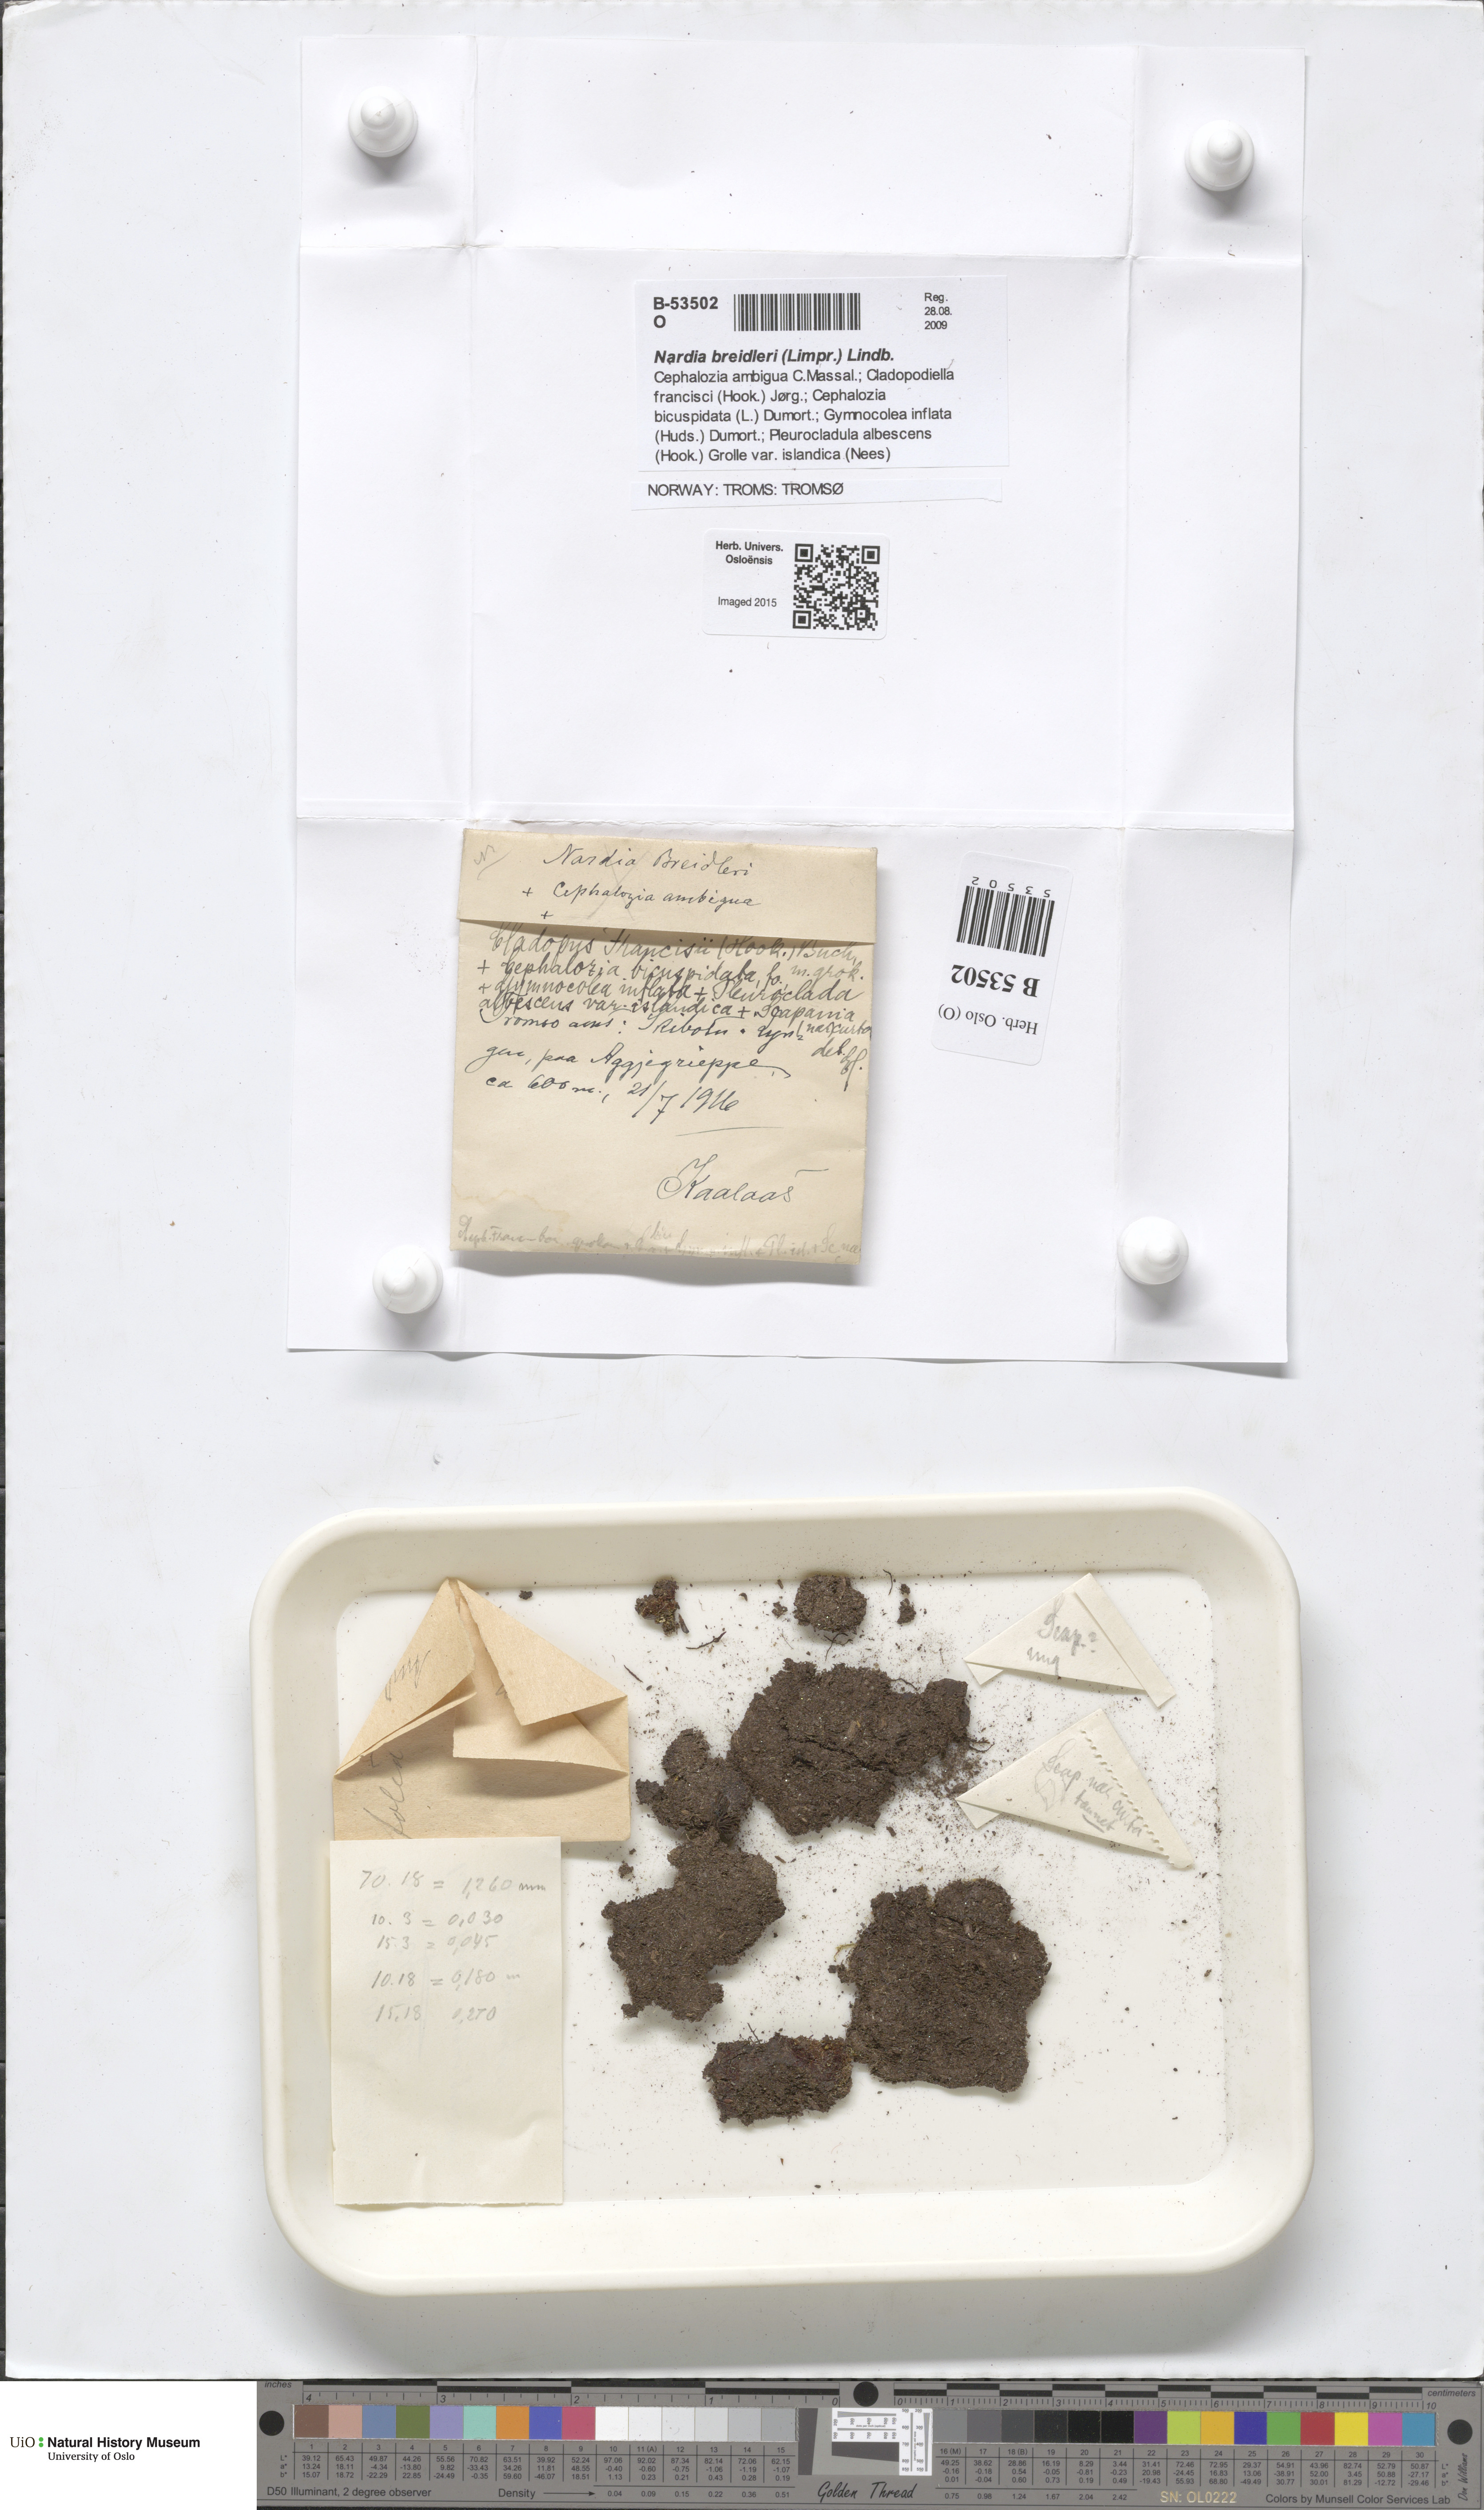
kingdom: Plantae
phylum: Marchantiophyta
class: Jungermanniopsida
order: Jungermanniales
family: Cephaloziaceae
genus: Odontoschisma
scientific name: Odontoschisma francisci
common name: Holt notchwort
